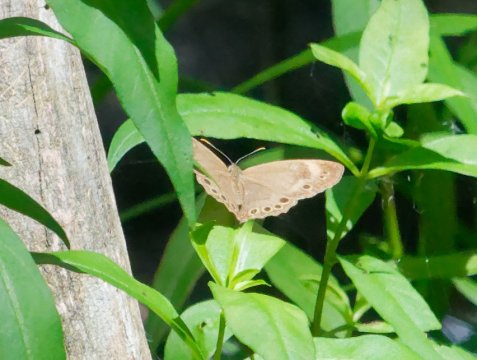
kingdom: Animalia
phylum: Arthropoda
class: Insecta
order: Lepidoptera
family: Nymphalidae
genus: Lethe
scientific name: Lethe eurydice
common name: Appalachian Eyed Brown
